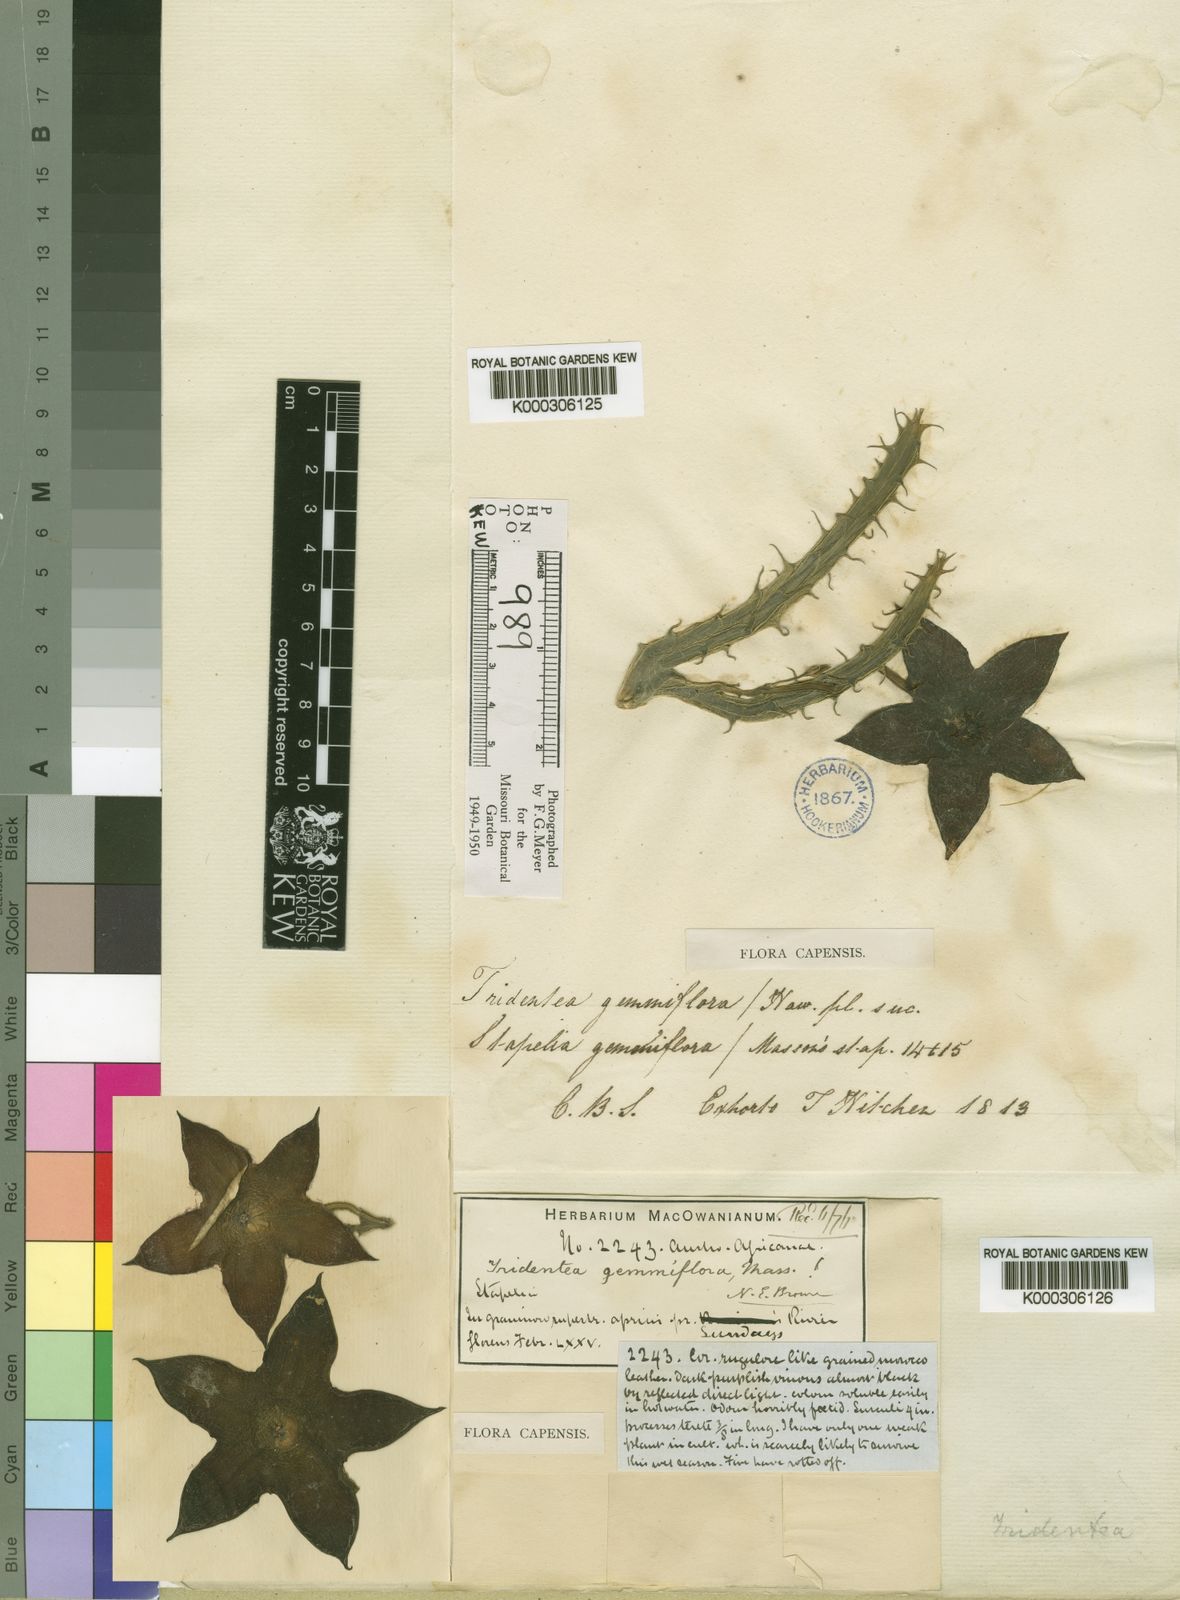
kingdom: Plantae
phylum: Tracheophyta
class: Magnoliopsida
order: Gentianales
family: Apocynaceae
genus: Ceropegia
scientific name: Ceropegia gemmiflora
